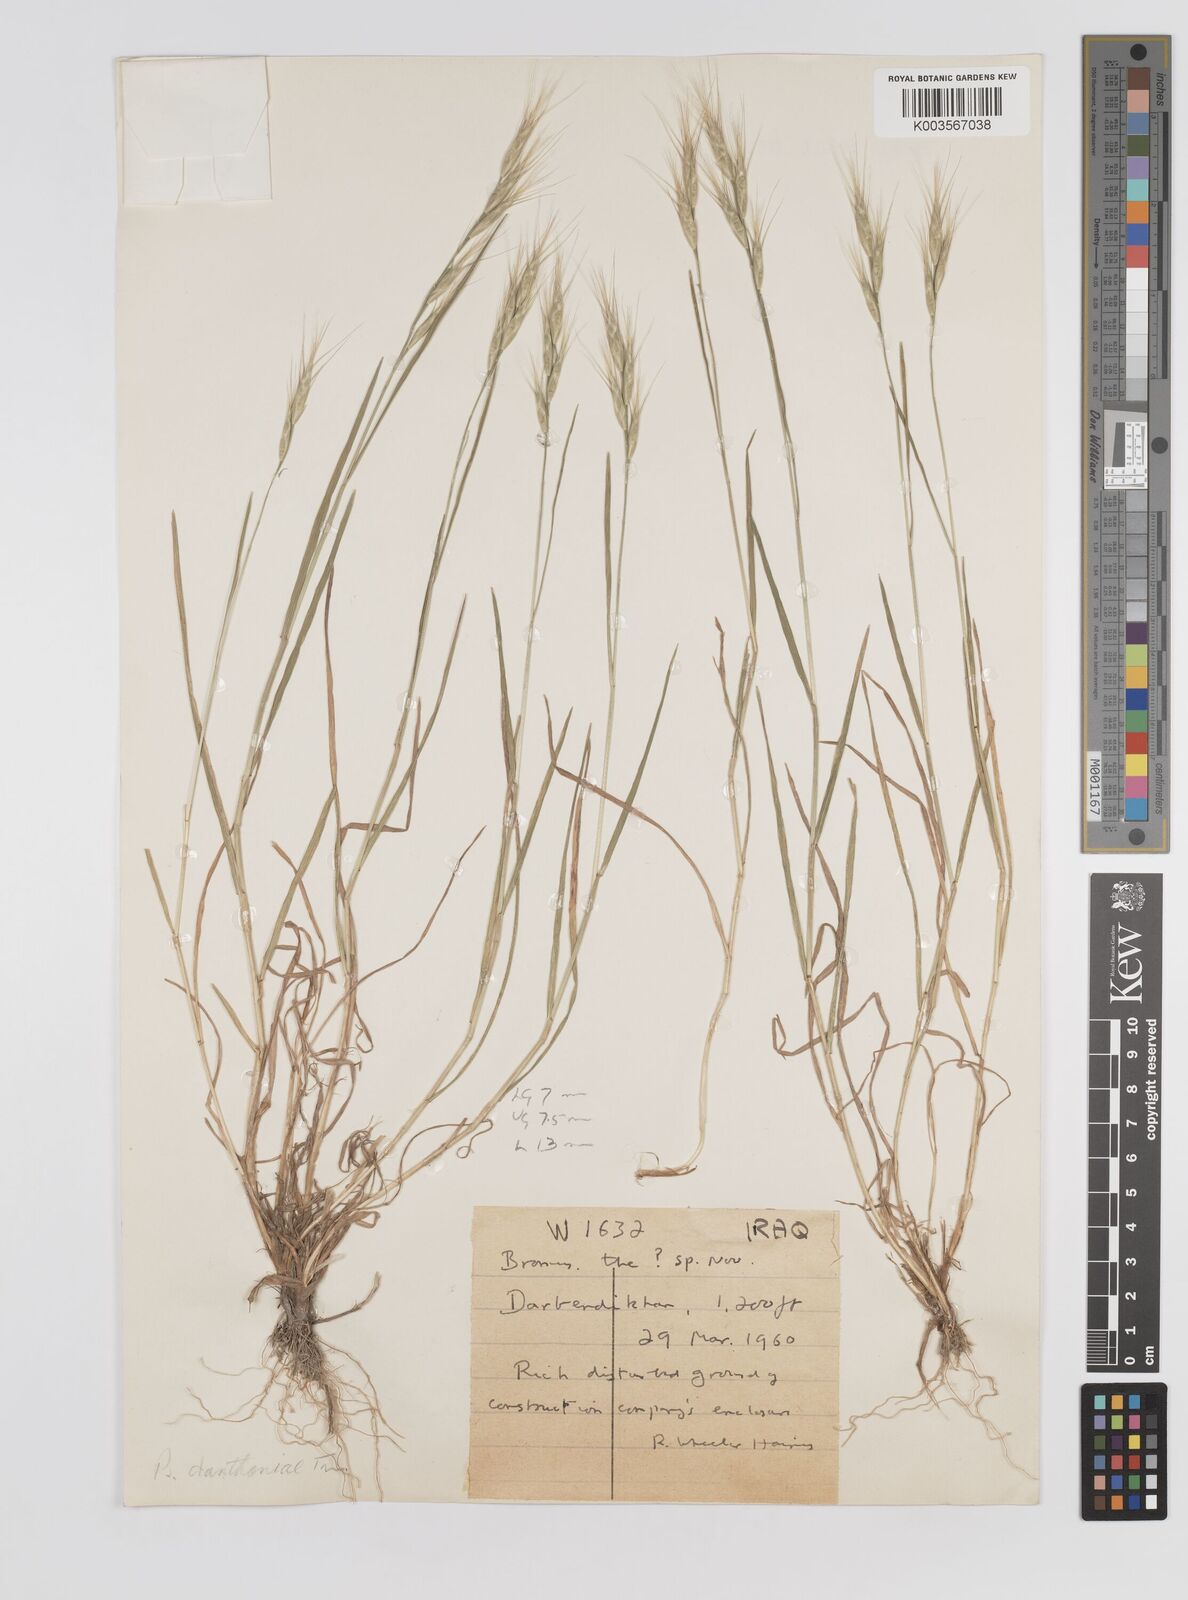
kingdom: Plantae
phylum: Tracheophyta
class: Liliopsida
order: Poales
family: Poaceae
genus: Bromus
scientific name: Bromus danthoniae
